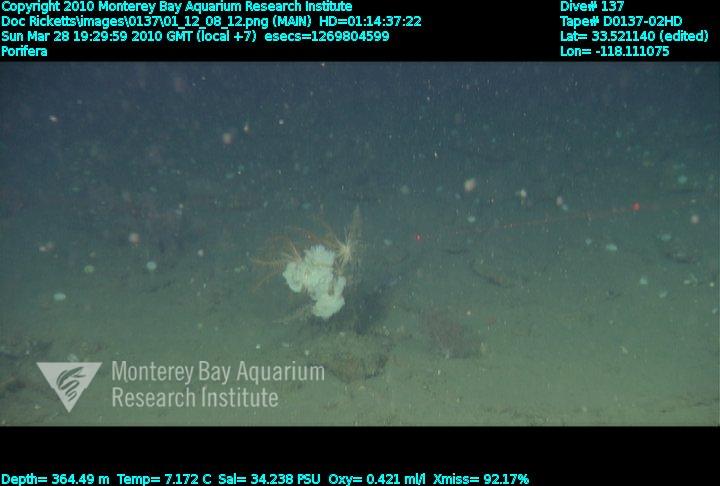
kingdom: Animalia
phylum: Porifera
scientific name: Porifera
